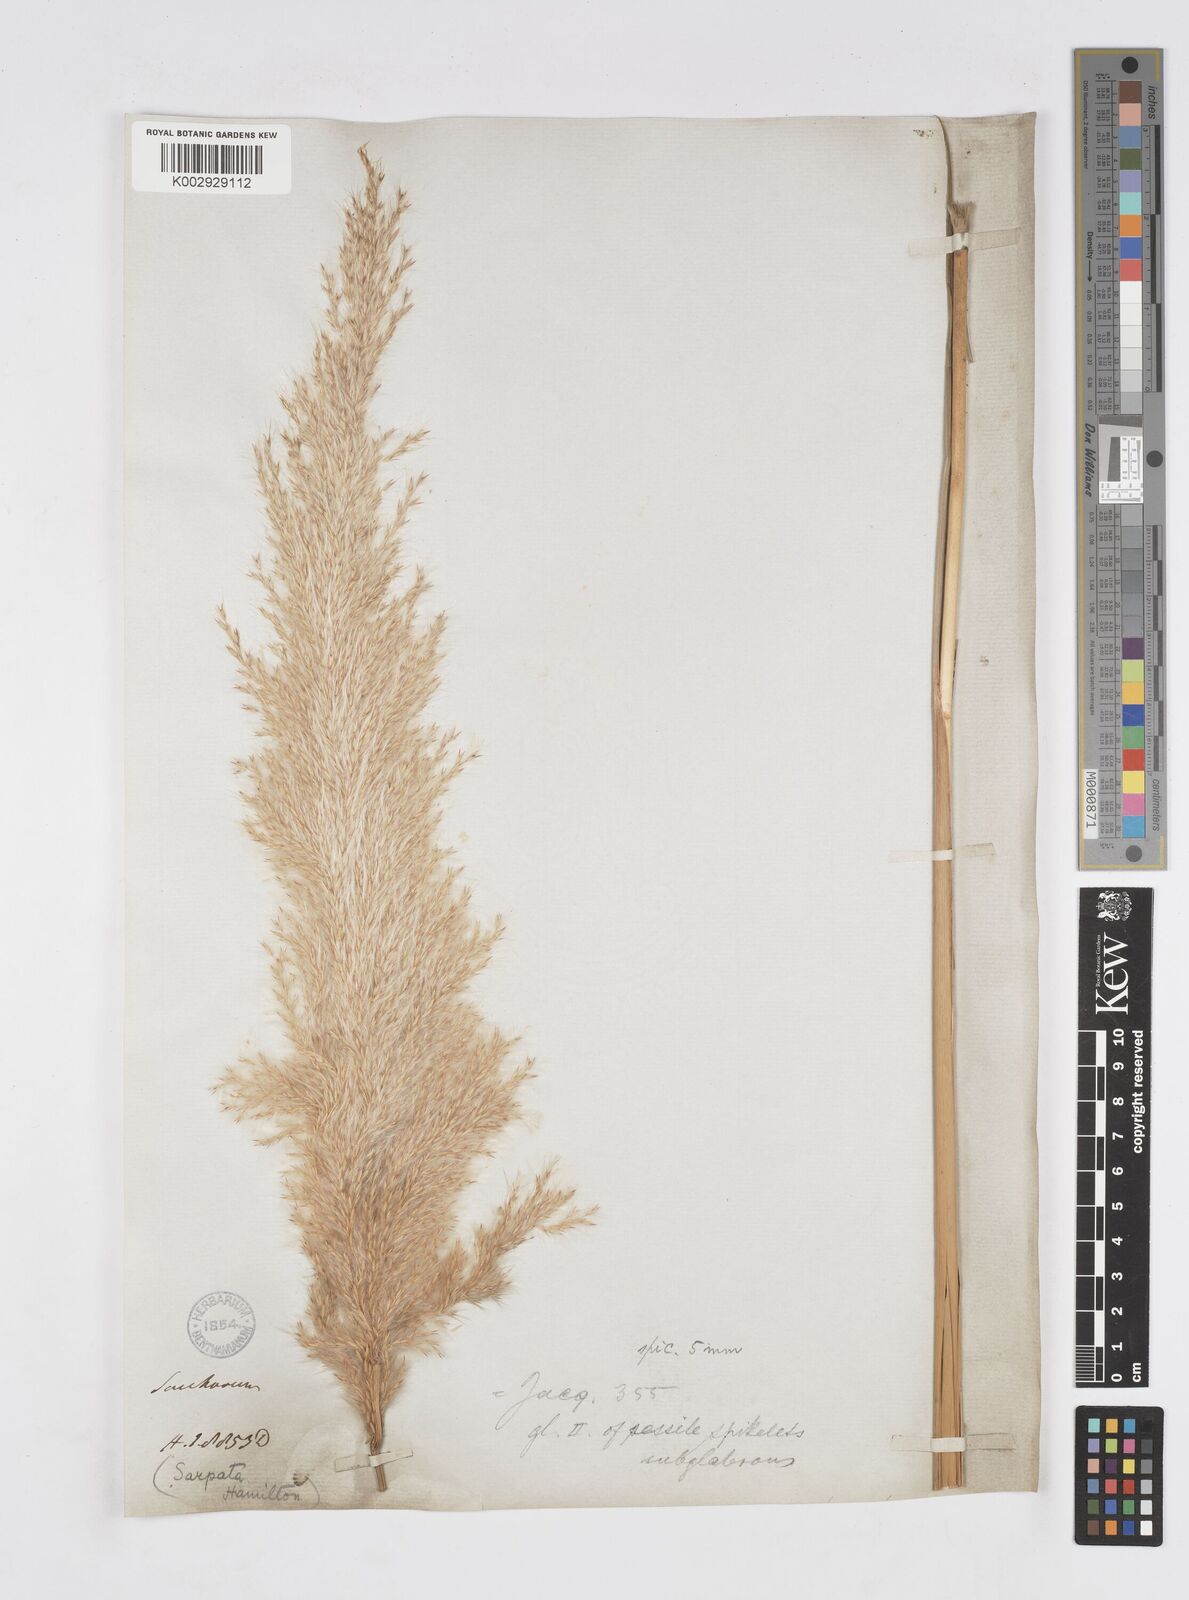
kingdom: Plantae
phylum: Tracheophyta
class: Liliopsida
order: Poales
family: Poaceae
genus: Saccharum
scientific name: Saccharum
